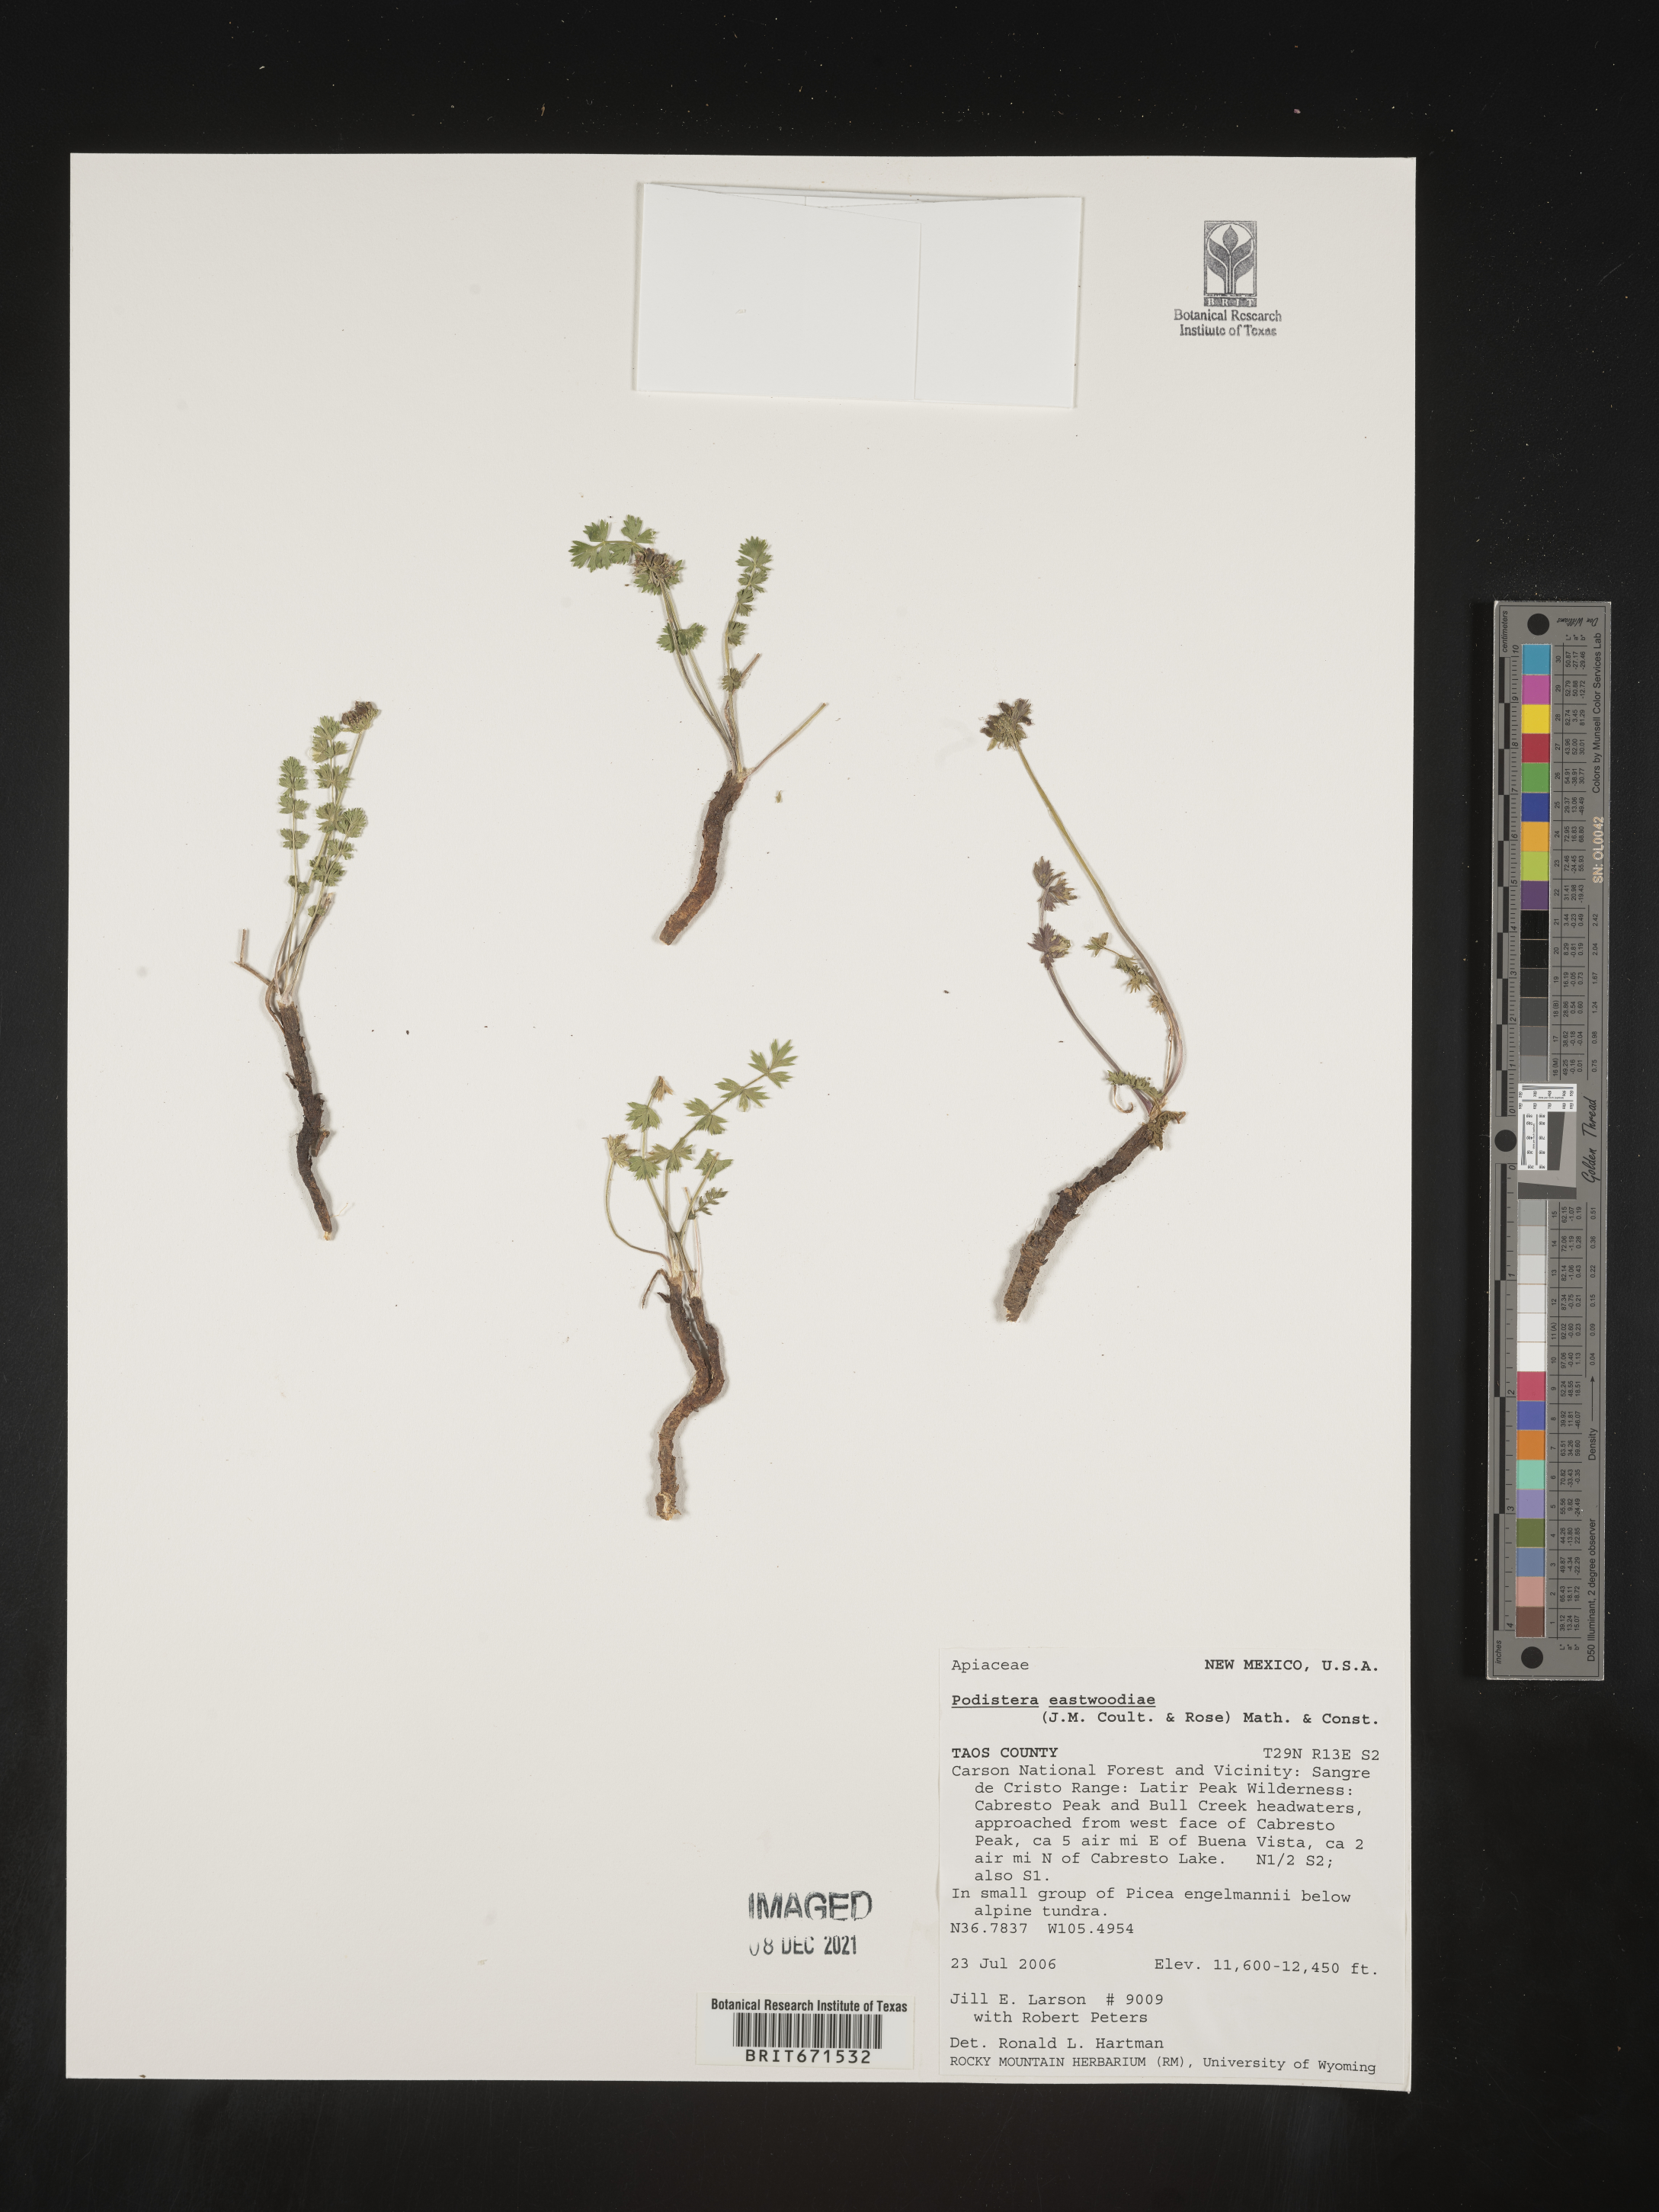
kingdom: Plantae
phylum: Tracheophyta
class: Magnoliopsida
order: Apiales
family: Apiaceae
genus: Podistera
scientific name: Podistera
